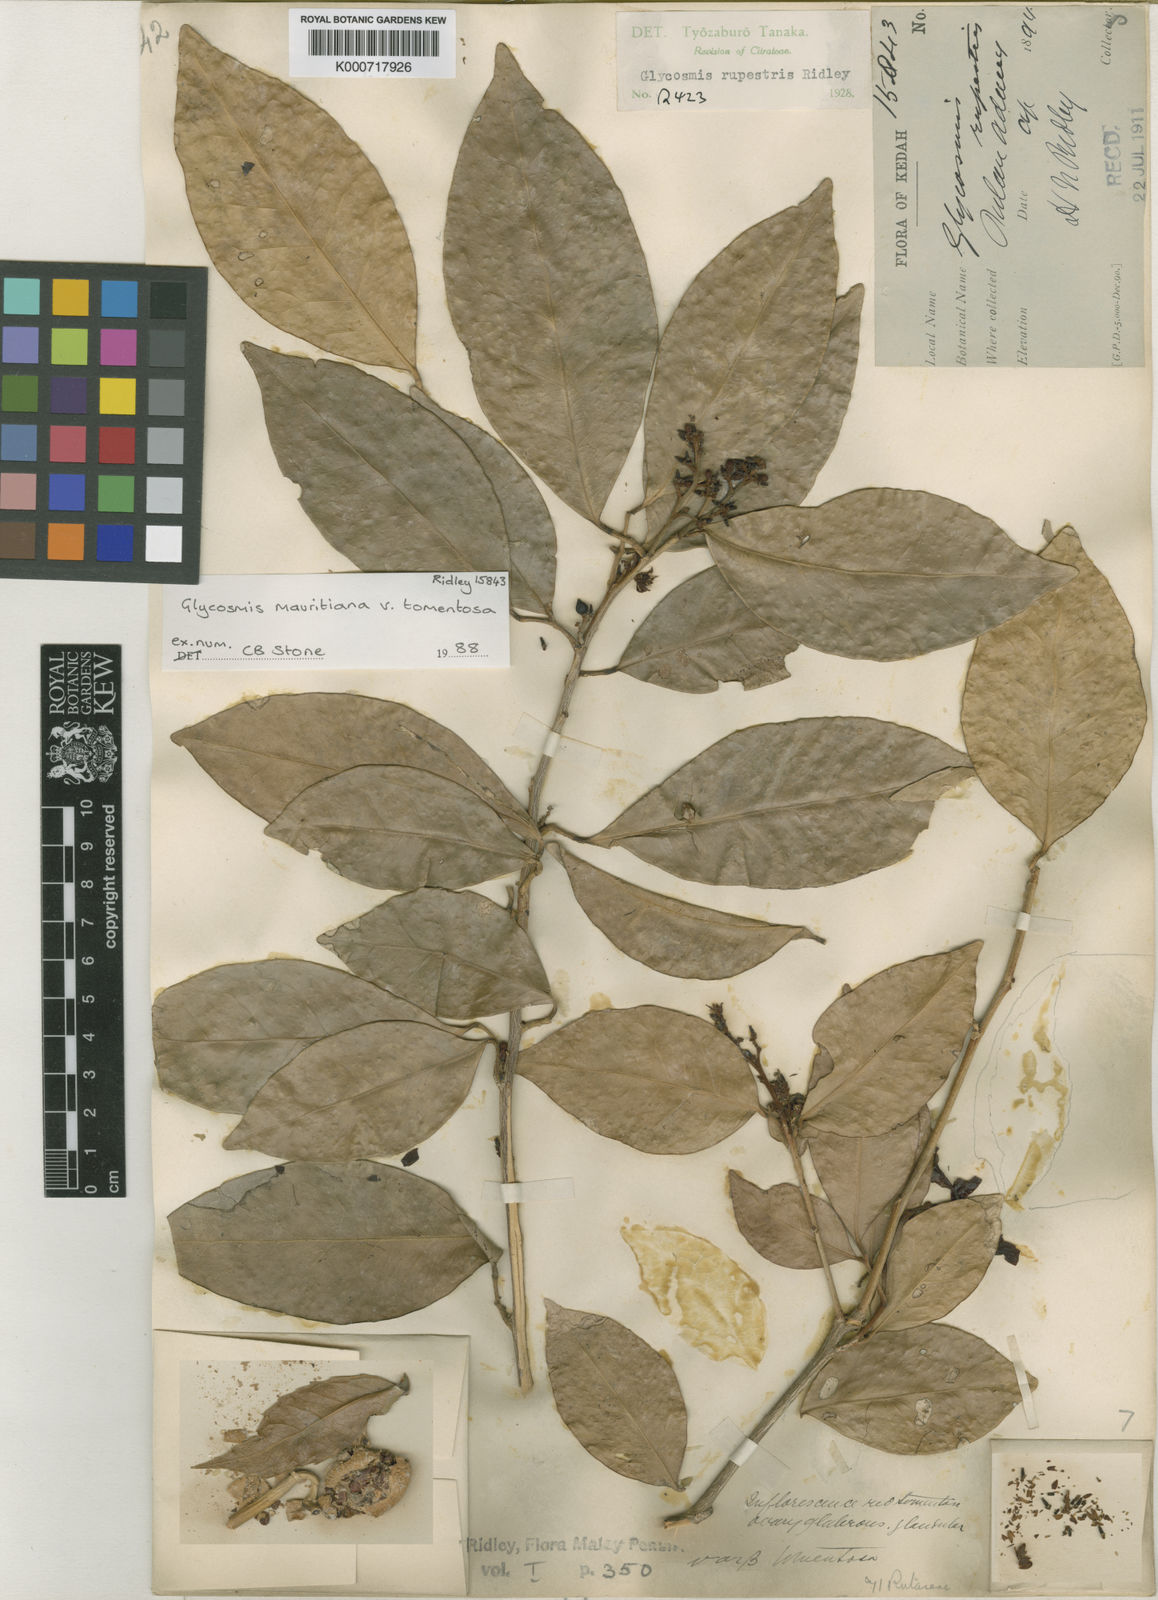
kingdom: Plantae
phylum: Tracheophyta
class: Magnoliopsida
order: Sapindales
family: Rutaceae
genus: Glycosmis
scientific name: Glycosmis mauritiana
